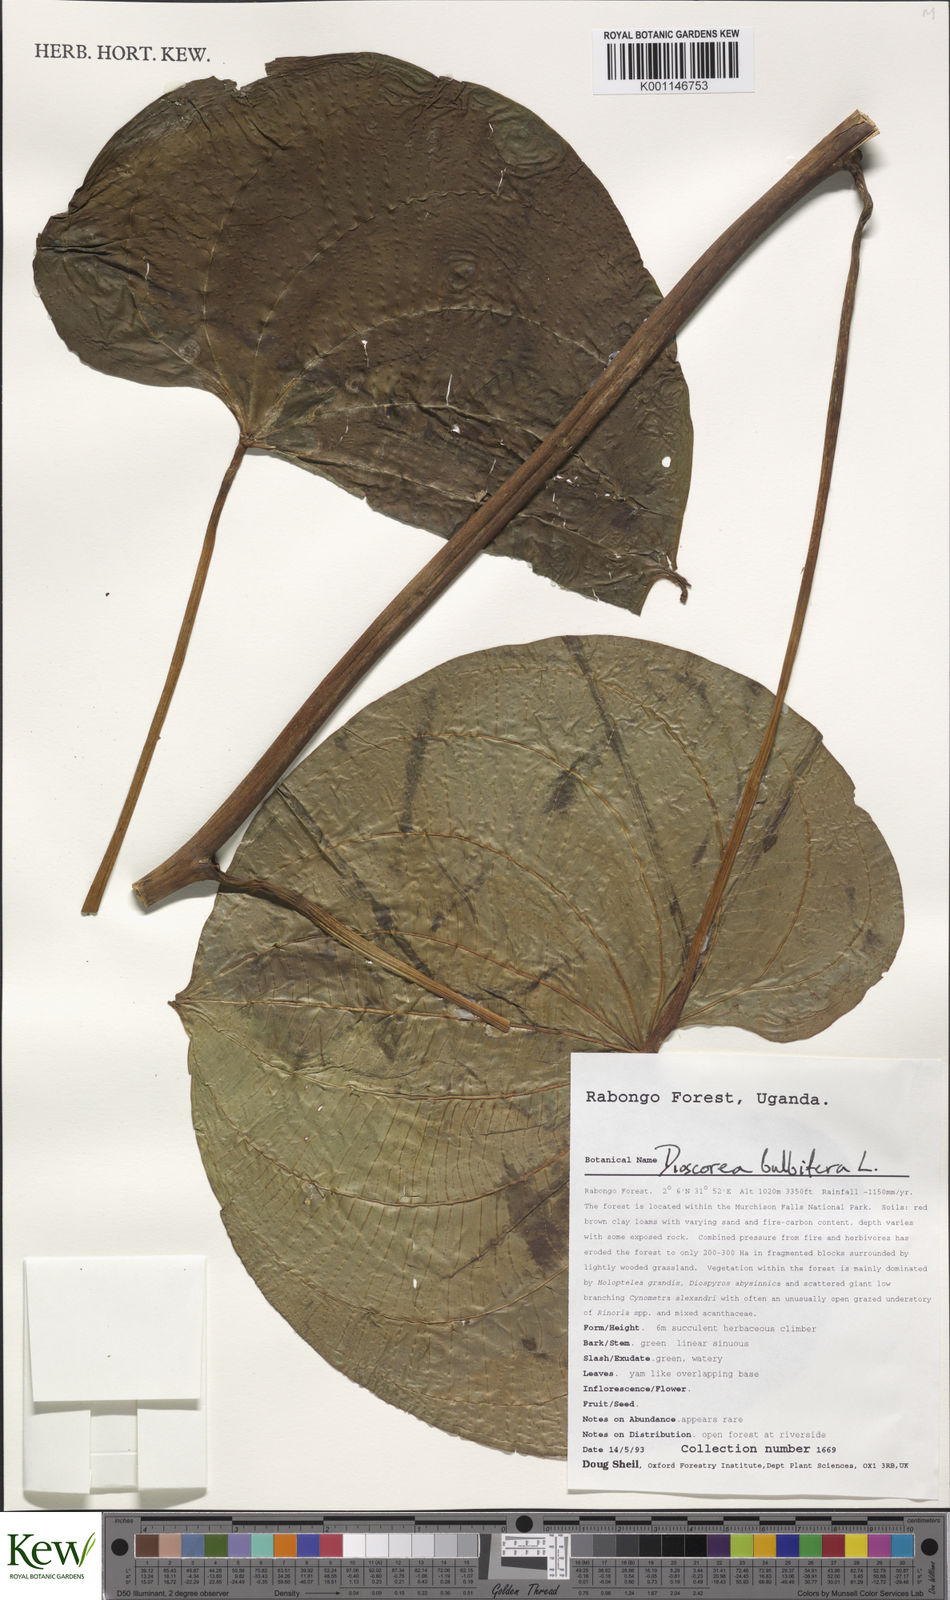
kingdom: Plantae
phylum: Tracheophyta
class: Liliopsida
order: Dioscoreales
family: Dioscoreaceae
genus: Dioscorea
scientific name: Dioscorea bulbifera
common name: Air yam
